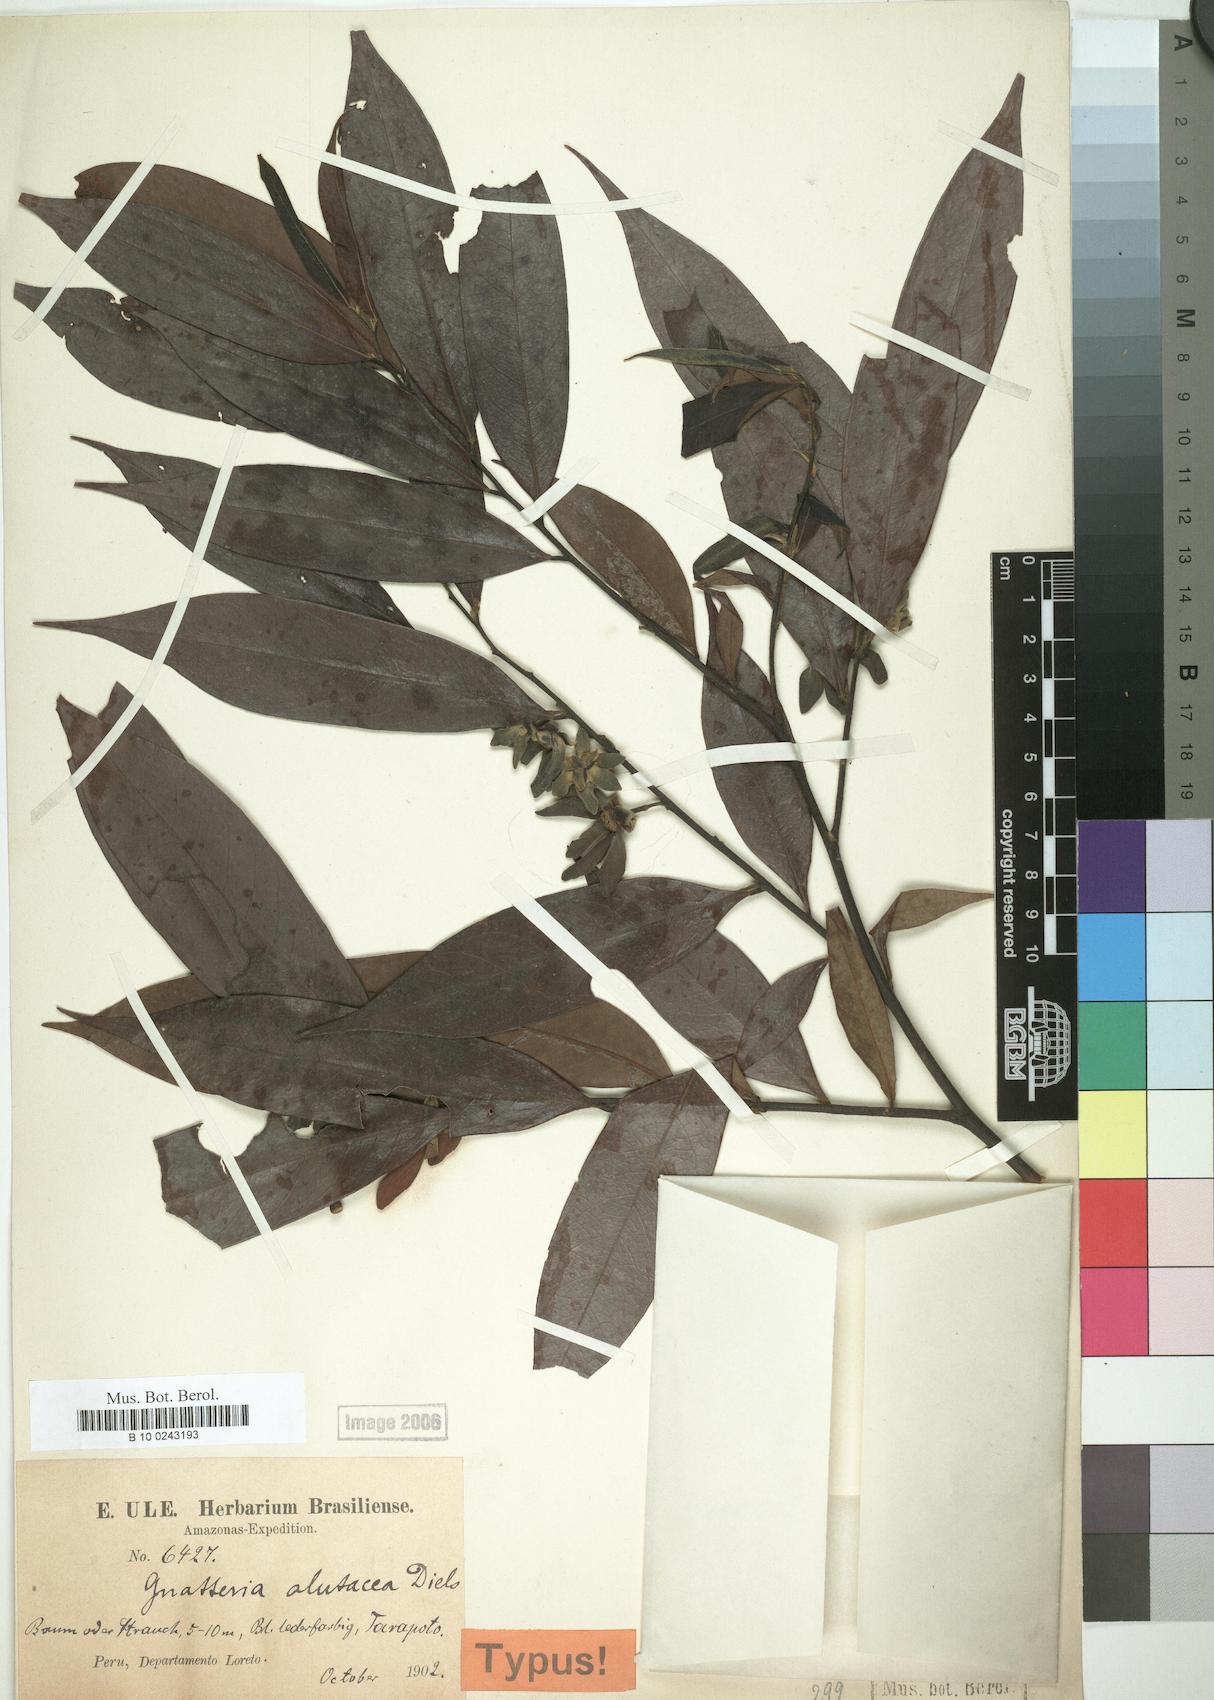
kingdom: Plantae
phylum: Tracheophyta
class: Magnoliopsida
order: Magnoliales
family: Annonaceae
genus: Guatteria
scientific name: Guatteria alutacea
